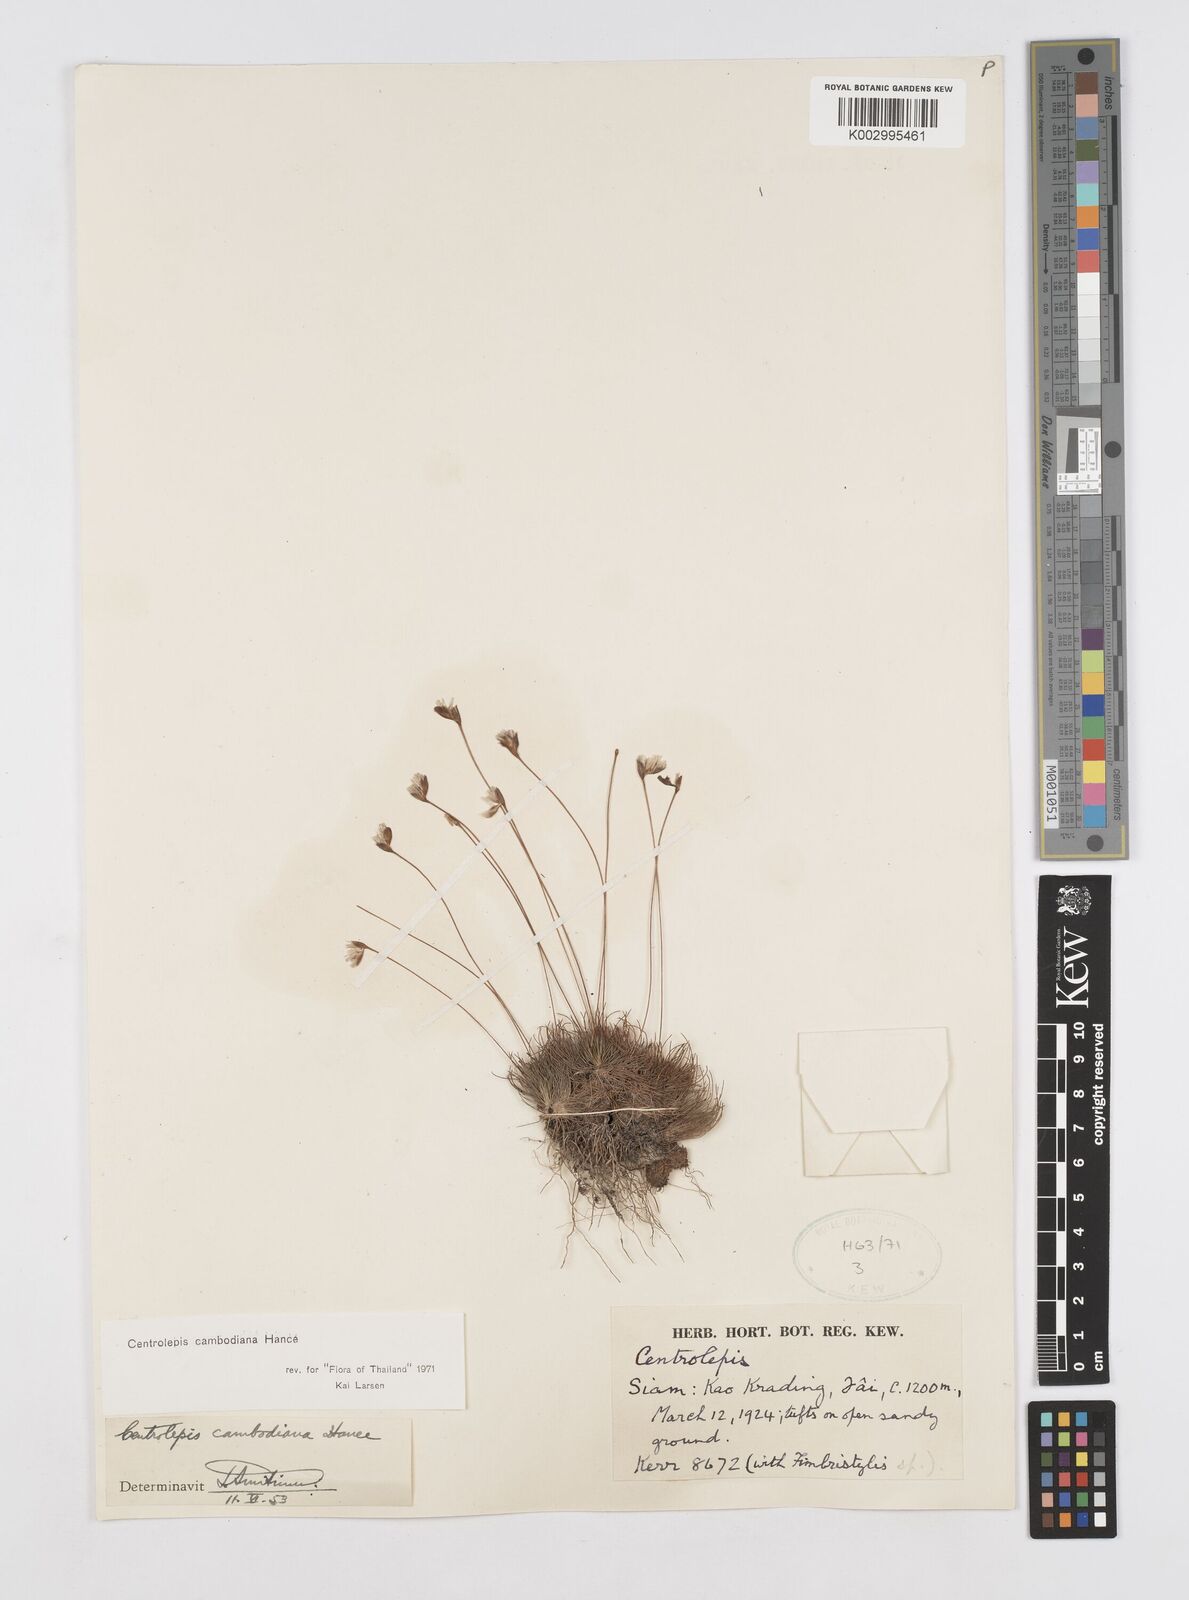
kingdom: Plantae
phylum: Tracheophyta
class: Liliopsida
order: Poales
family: Restionaceae
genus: Centrolepis
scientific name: Centrolepis cambodiana
